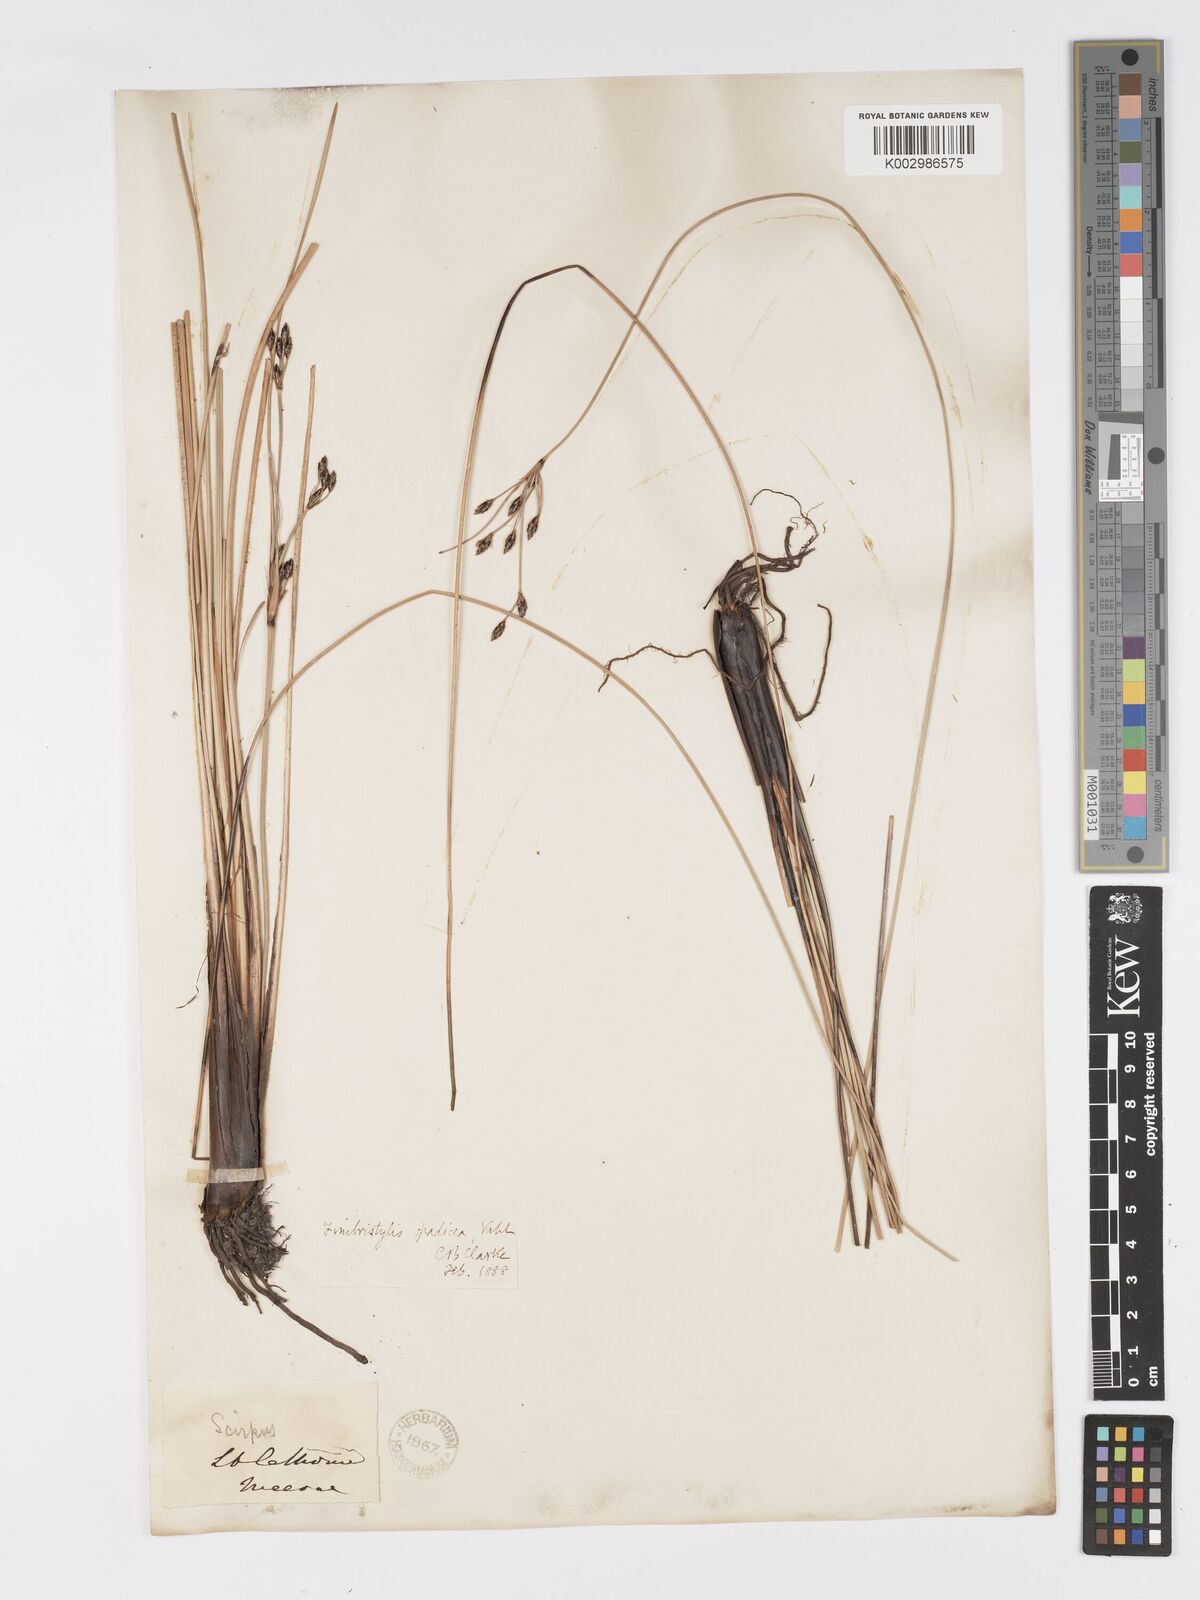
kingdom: Plantae
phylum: Tracheophyta
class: Liliopsida
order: Poales
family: Cyperaceae
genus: Fimbristylis
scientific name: Fimbristylis spadicea
